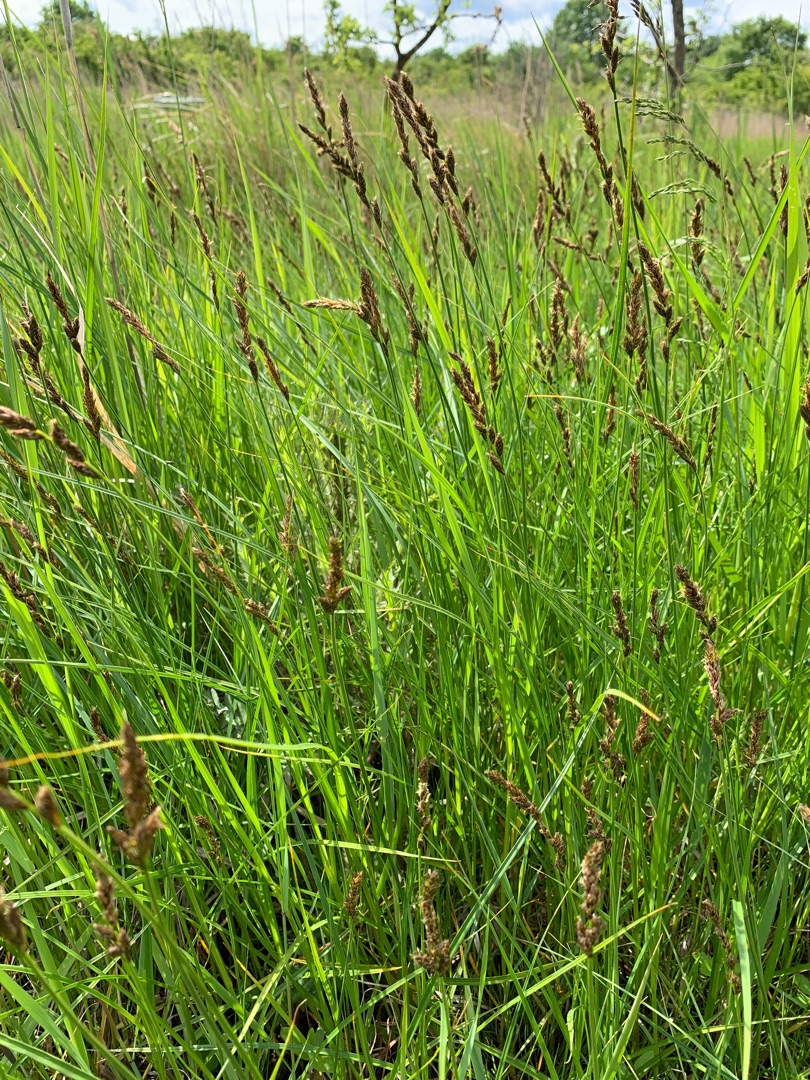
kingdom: Plantae
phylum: Tracheophyta
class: Liliopsida
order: Poales
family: Cyperaceae
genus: Carex
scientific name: Carex disticha
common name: Toradet star
